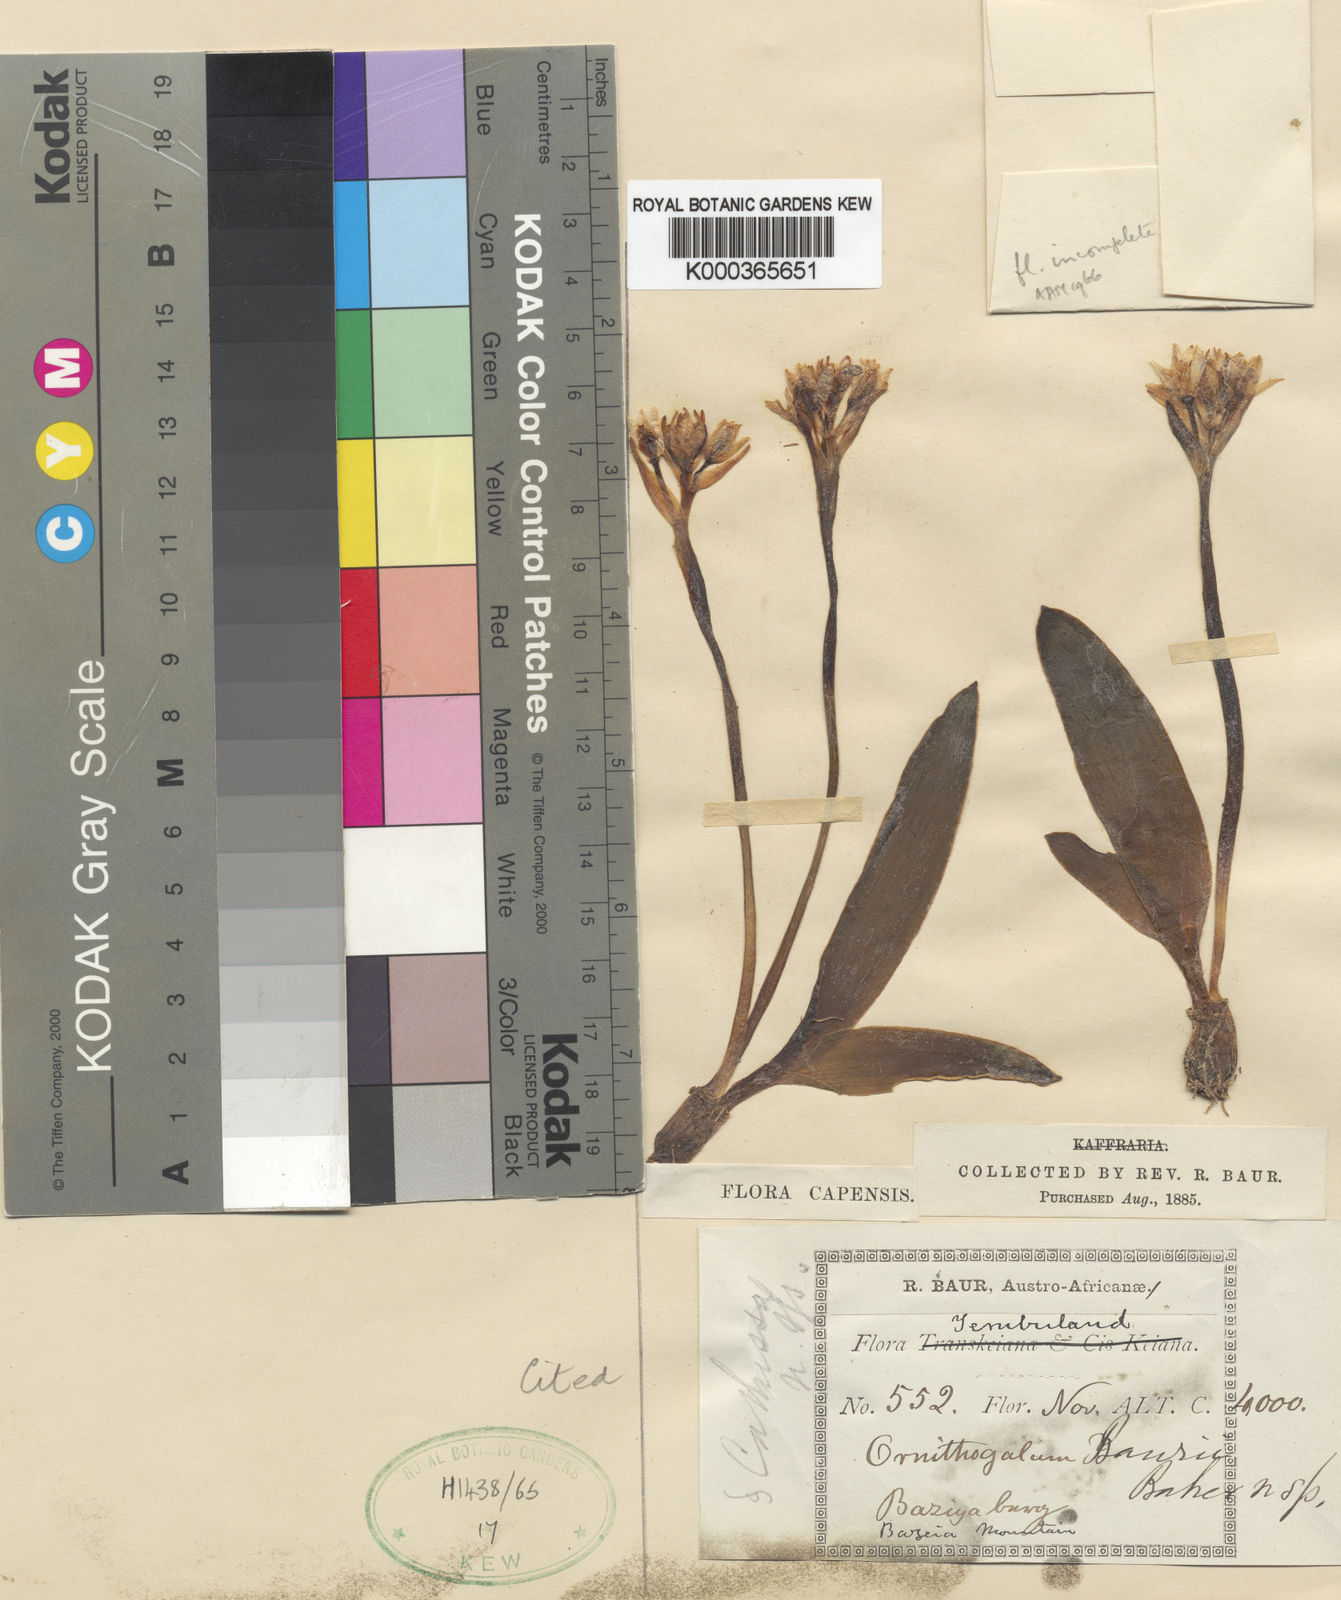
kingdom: Plantae
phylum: Tracheophyta
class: Liliopsida
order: Asparagales
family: Asparagaceae
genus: Ornithogalum
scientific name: Ornithogalum baurii
